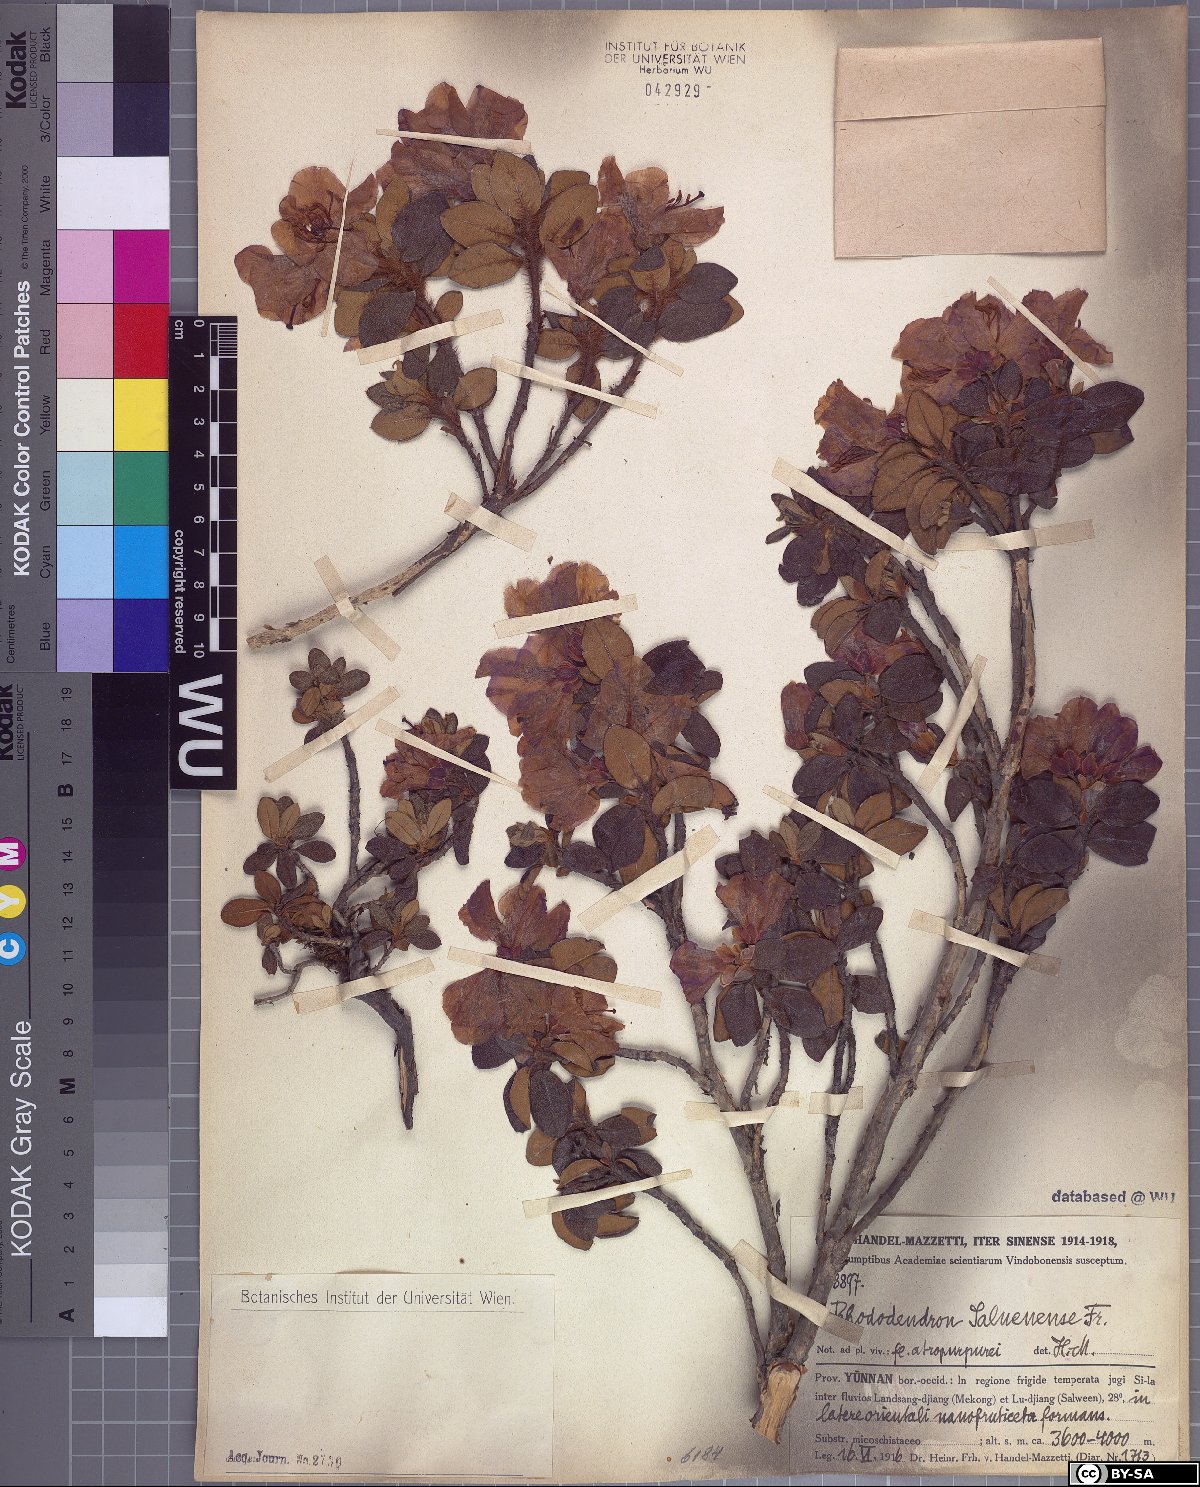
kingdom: Plantae
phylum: Tracheophyta
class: Magnoliopsida
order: Ericales
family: Ericaceae
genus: Rhododendron
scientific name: Rhododendron saluenense
